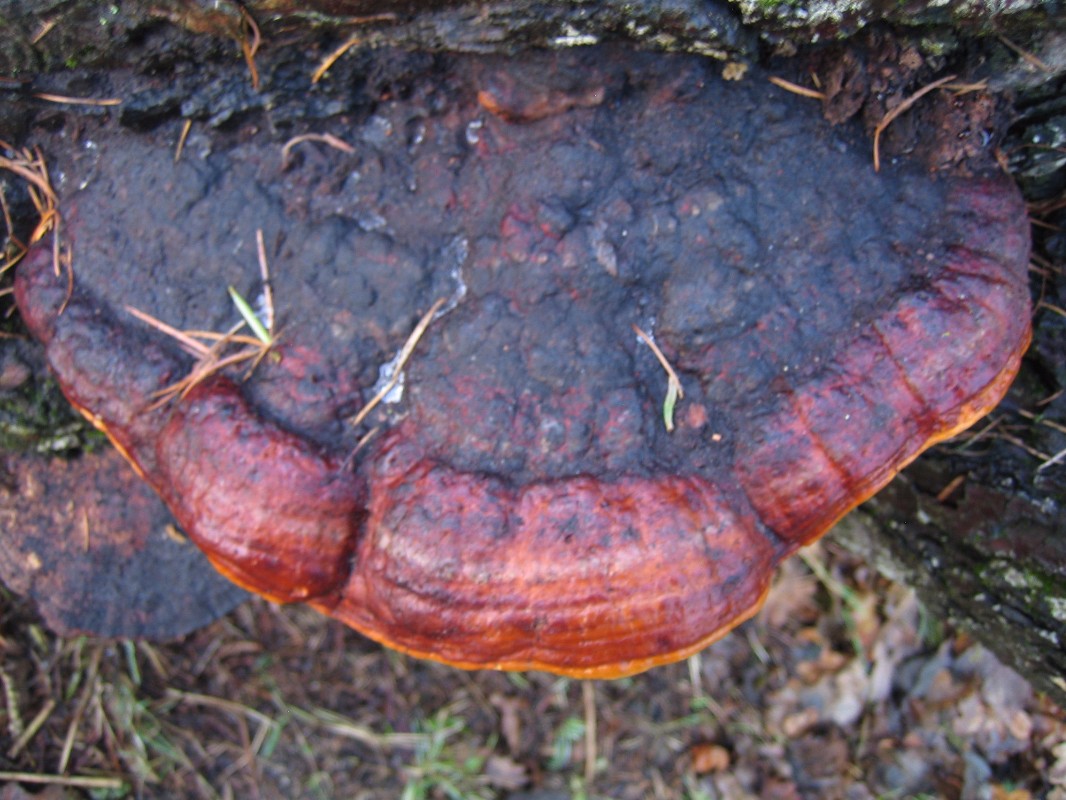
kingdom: Fungi
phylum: Basidiomycota
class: Agaricomycetes
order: Polyporales
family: Fomitopsidaceae
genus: Fomitopsis
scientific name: Fomitopsis pinicola
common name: randbæltet hovporesvamp
